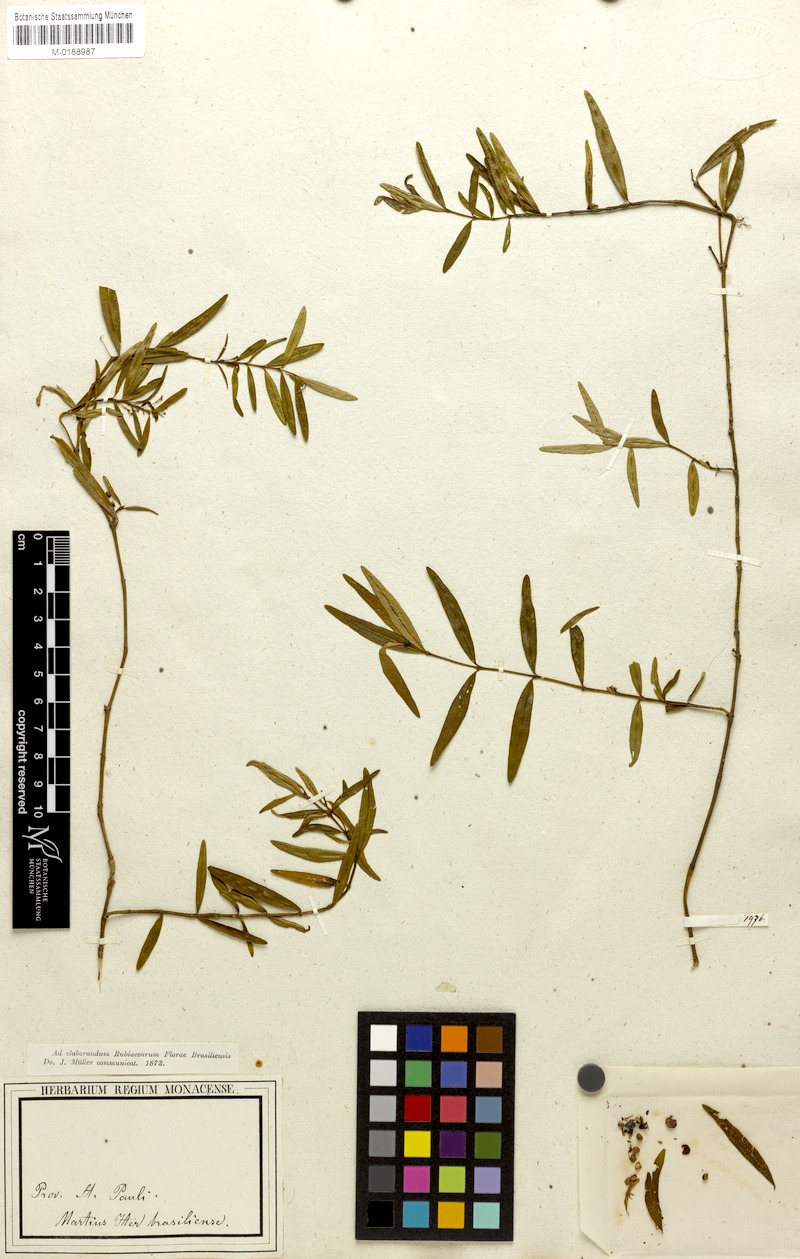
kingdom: Plantae
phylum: Tracheophyta
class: Magnoliopsida
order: Gentianales
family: Rubiaceae
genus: Psychotria
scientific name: Psychotria microcarpa
